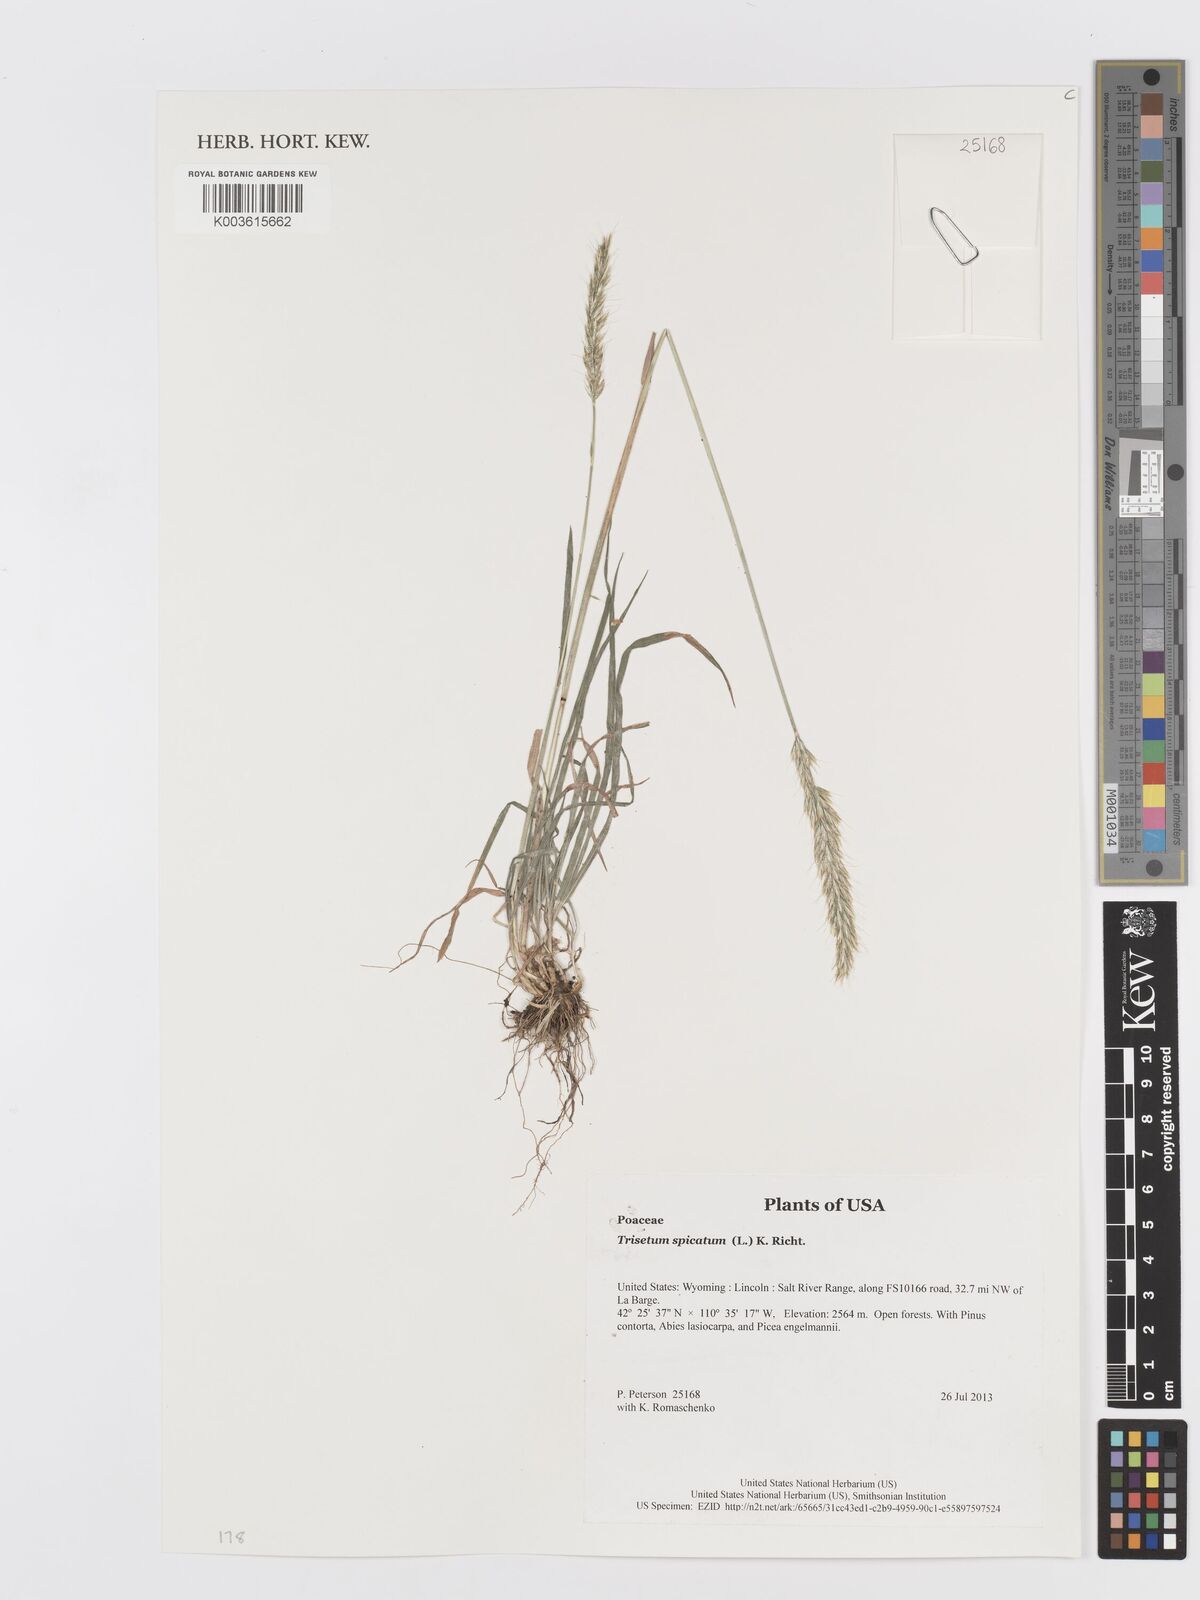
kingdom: Plantae
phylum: Tracheophyta
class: Liliopsida
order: Poales
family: Poaceae
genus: Koeleria
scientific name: Koeleria spicata
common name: Mountain trisetum
